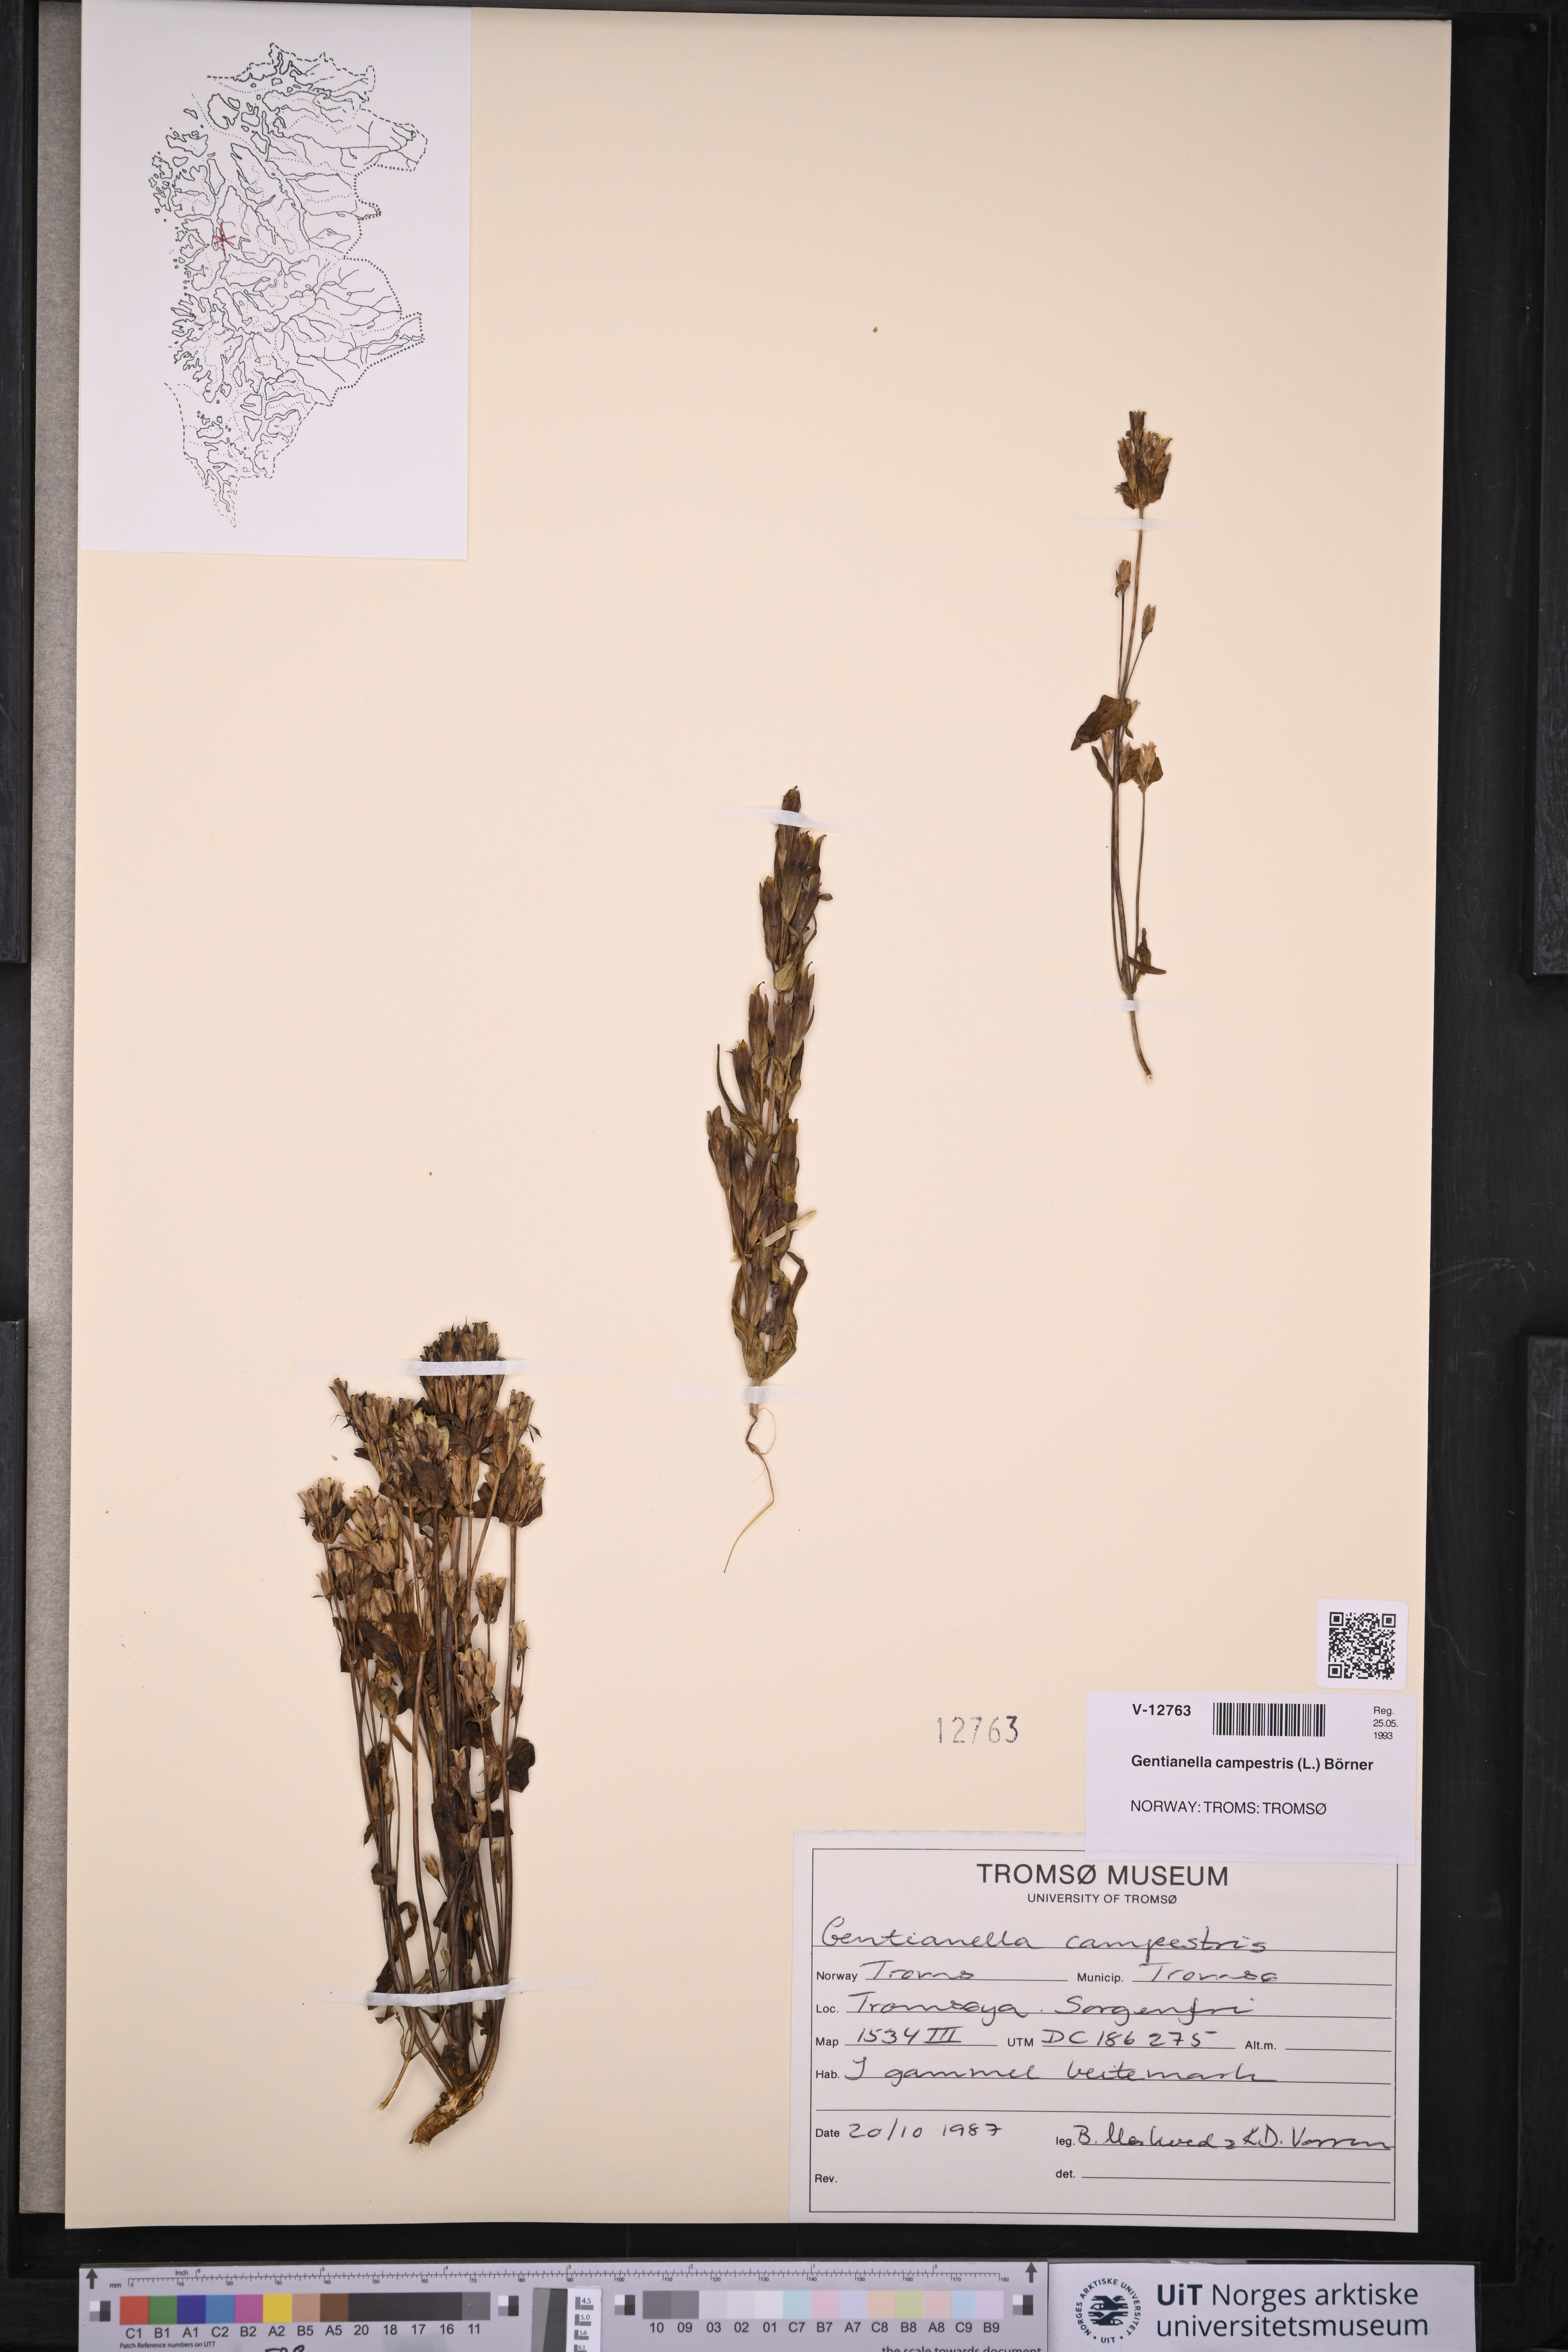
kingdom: Plantae
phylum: Tracheophyta
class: Magnoliopsida
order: Gentianales
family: Gentianaceae
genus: Gentianella
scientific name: Gentianella campestris
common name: Field gentian
